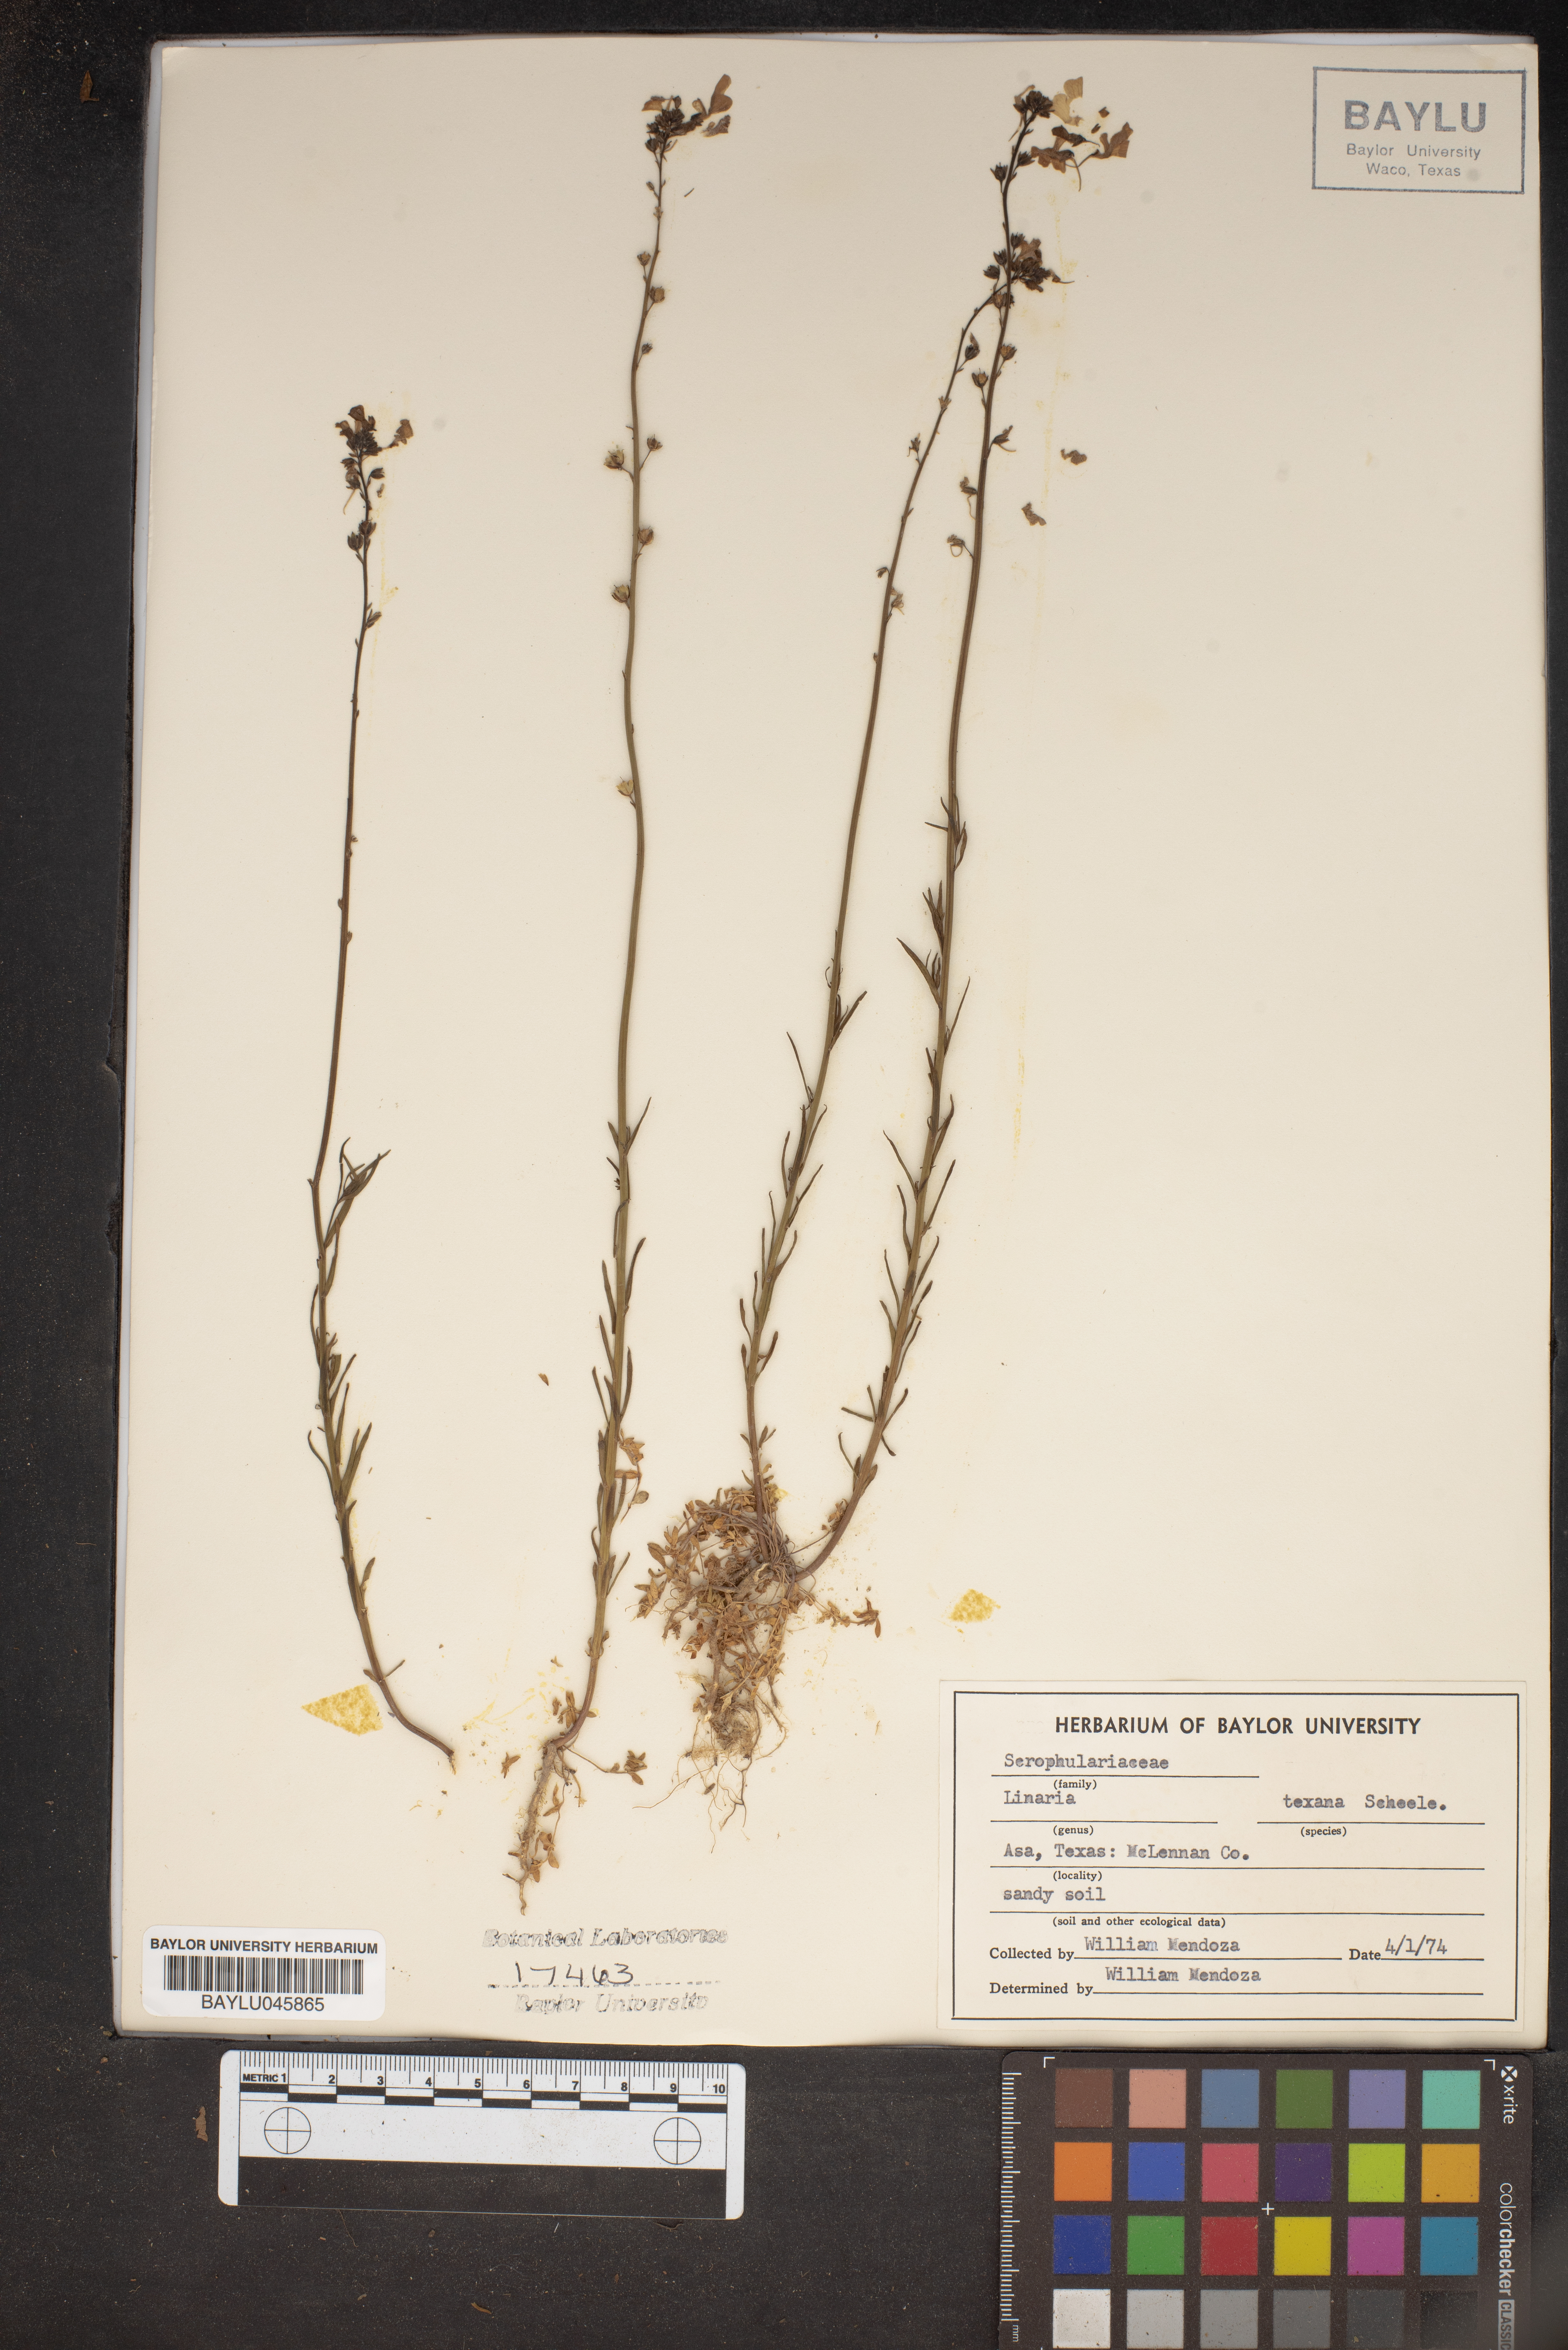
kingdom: Plantae
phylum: Tracheophyta
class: Magnoliopsida
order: Lamiales
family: Plantaginaceae
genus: Nuttallanthus
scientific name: Nuttallanthus texanus
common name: Texas toadflax
